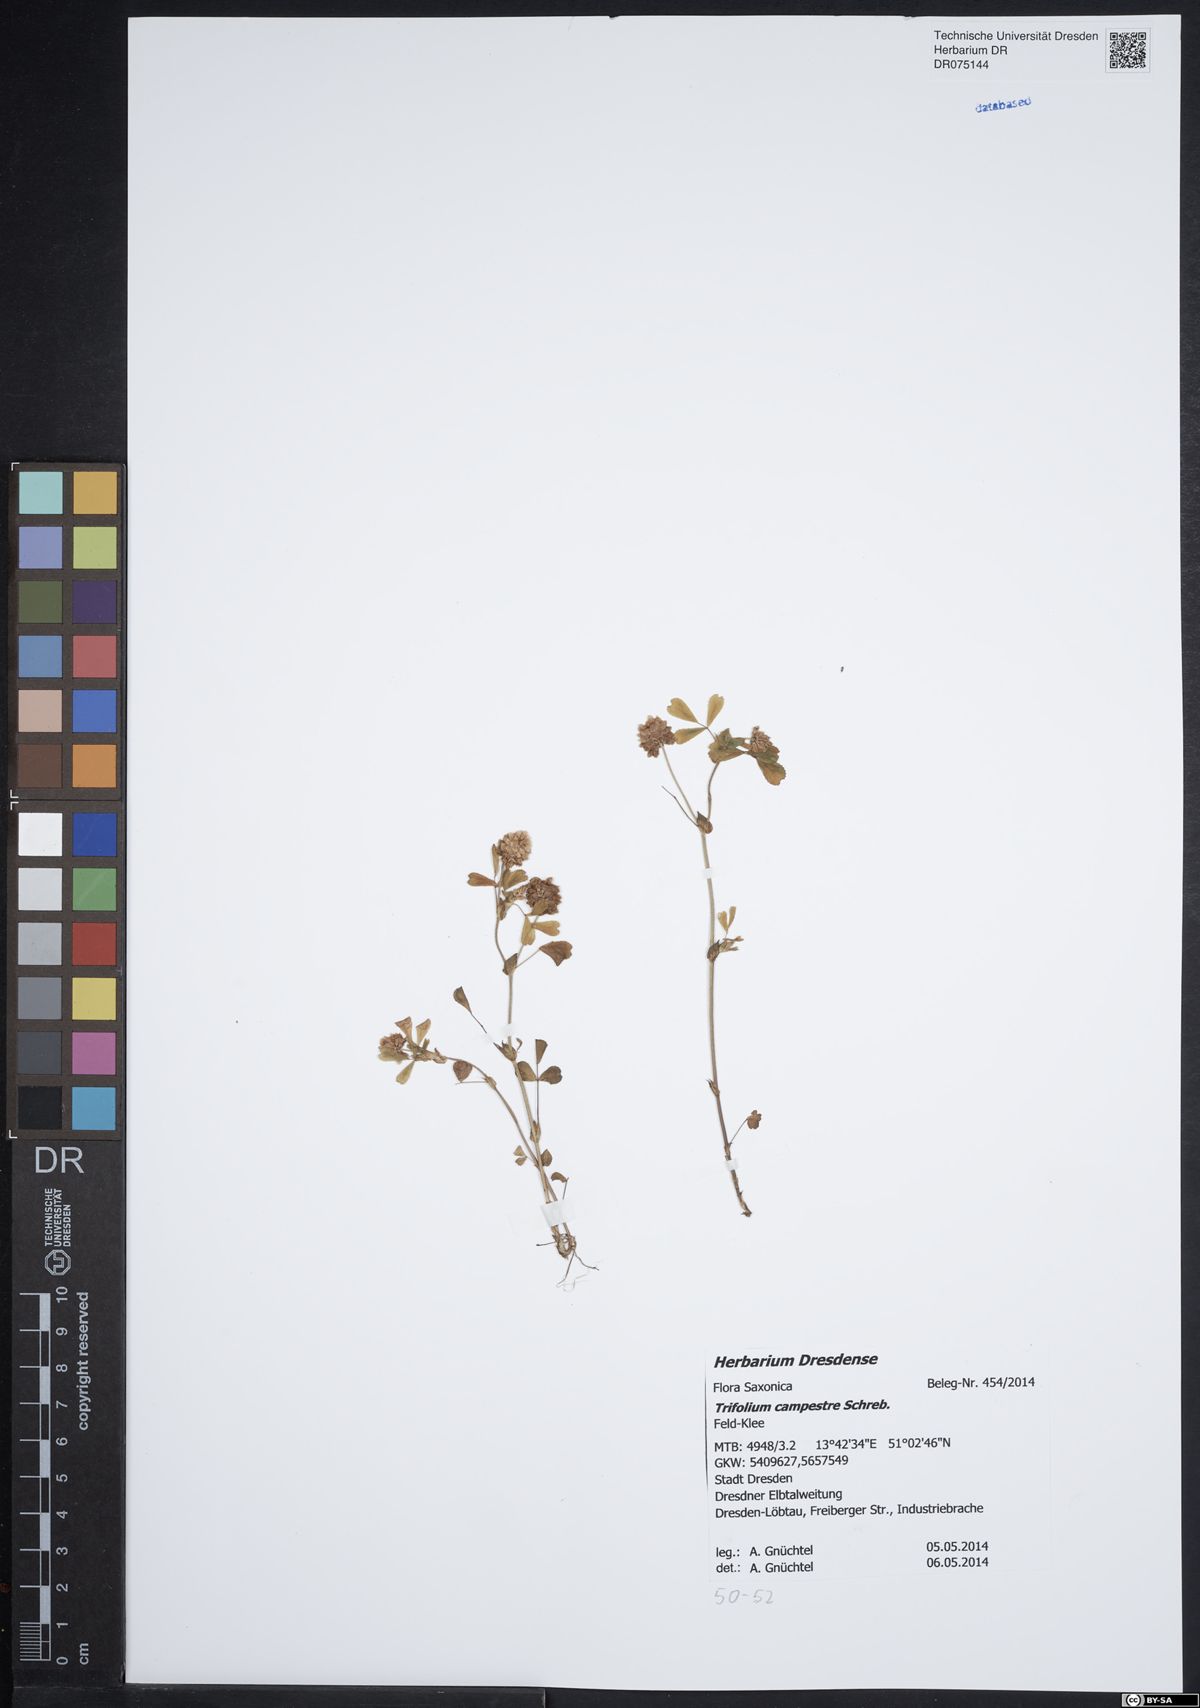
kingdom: Plantae
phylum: Tracheophyta
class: Magnoliopsida
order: Fabales
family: Fabaceae
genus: Trifolium
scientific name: Trifolium campestre
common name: Field clover
